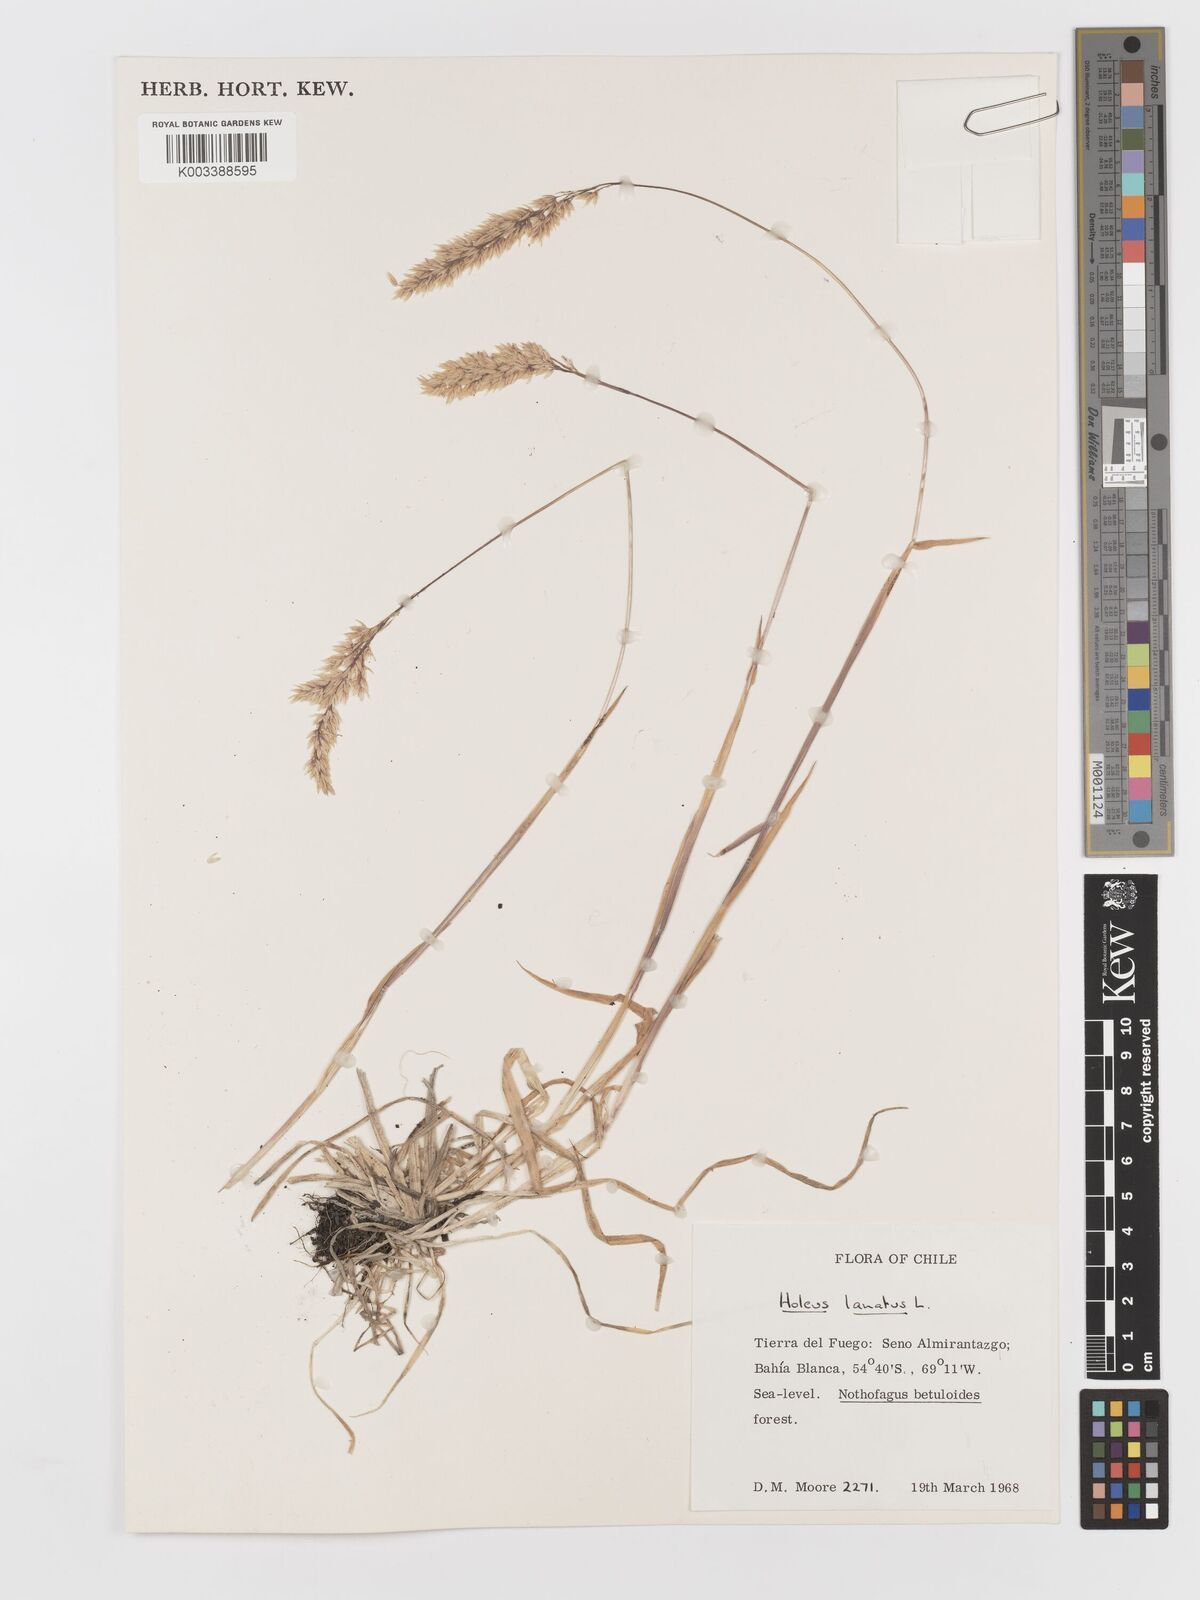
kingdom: Plantae
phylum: Tracheophyta
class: Liliopsida
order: Poales
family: Poaceae
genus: Holcus
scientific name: Holcus lanatus
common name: Yorkshire-fog
